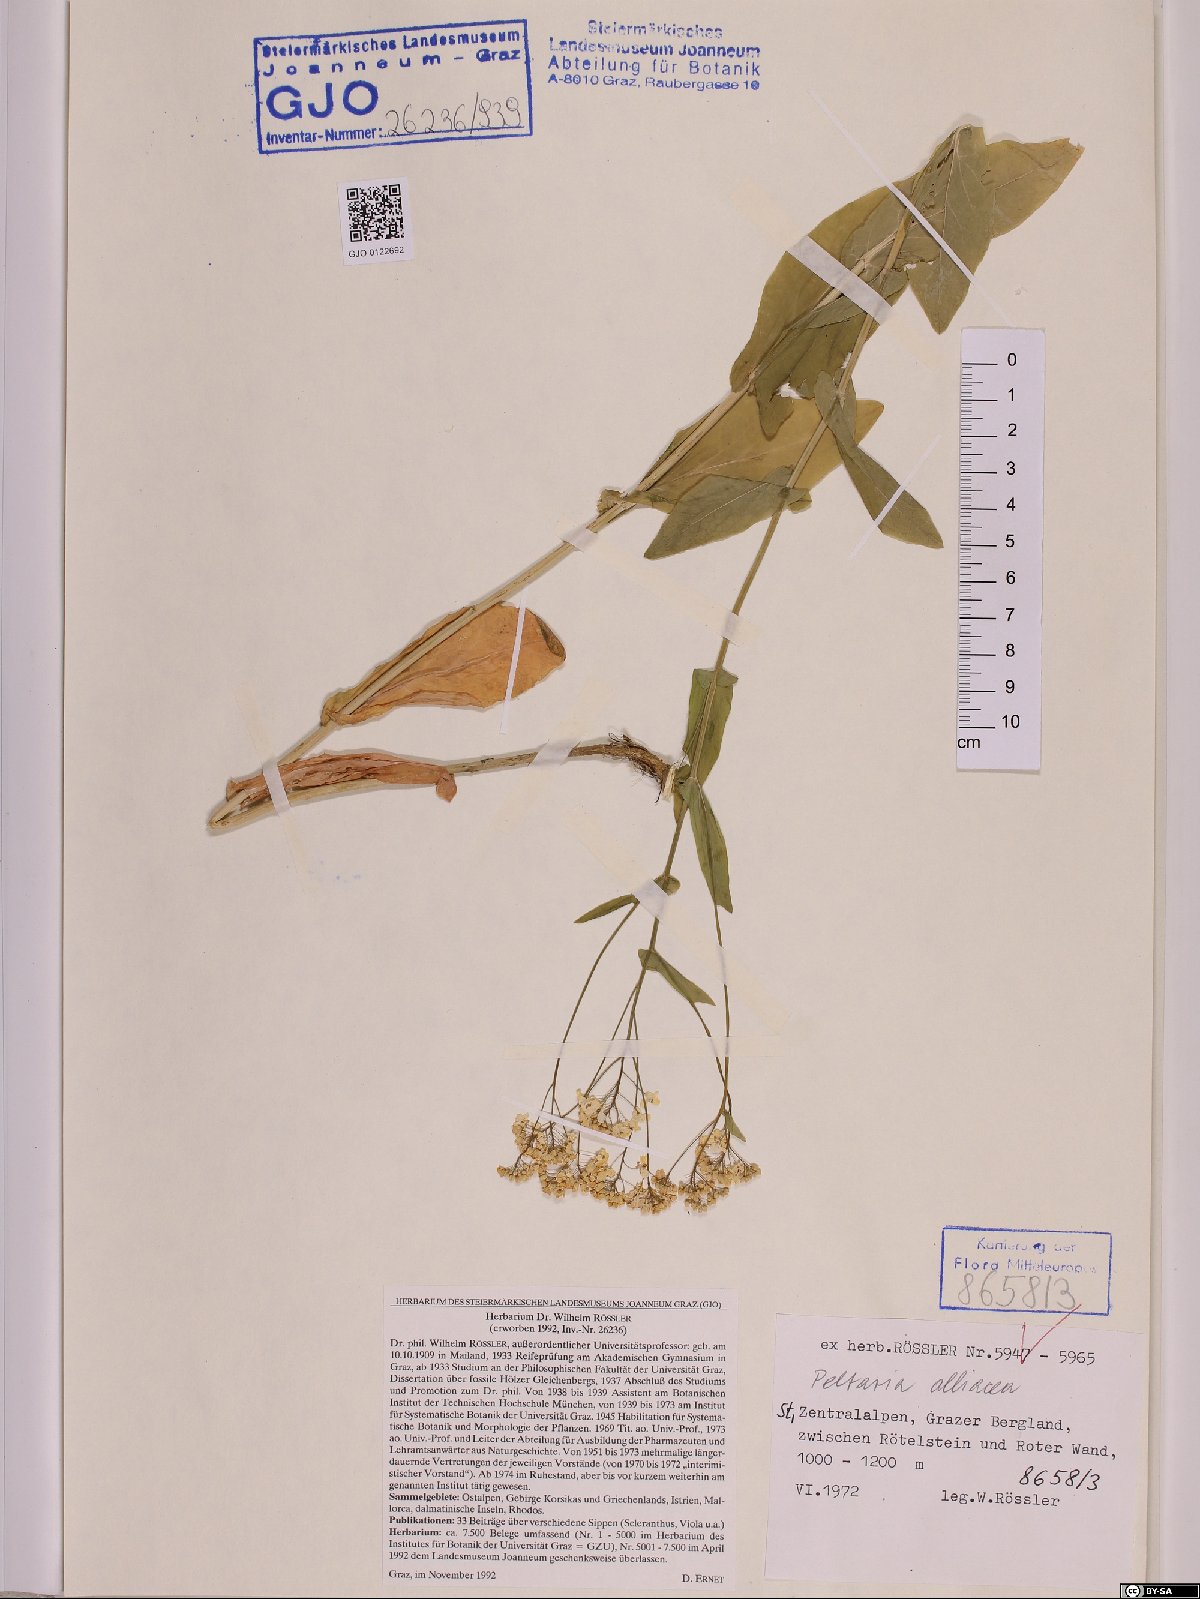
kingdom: Plantae
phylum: Tracheophyta
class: Magnoliopsida
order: Brassicales
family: Brassicaceae
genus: Peltaria
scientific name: Peltaria alliacea
